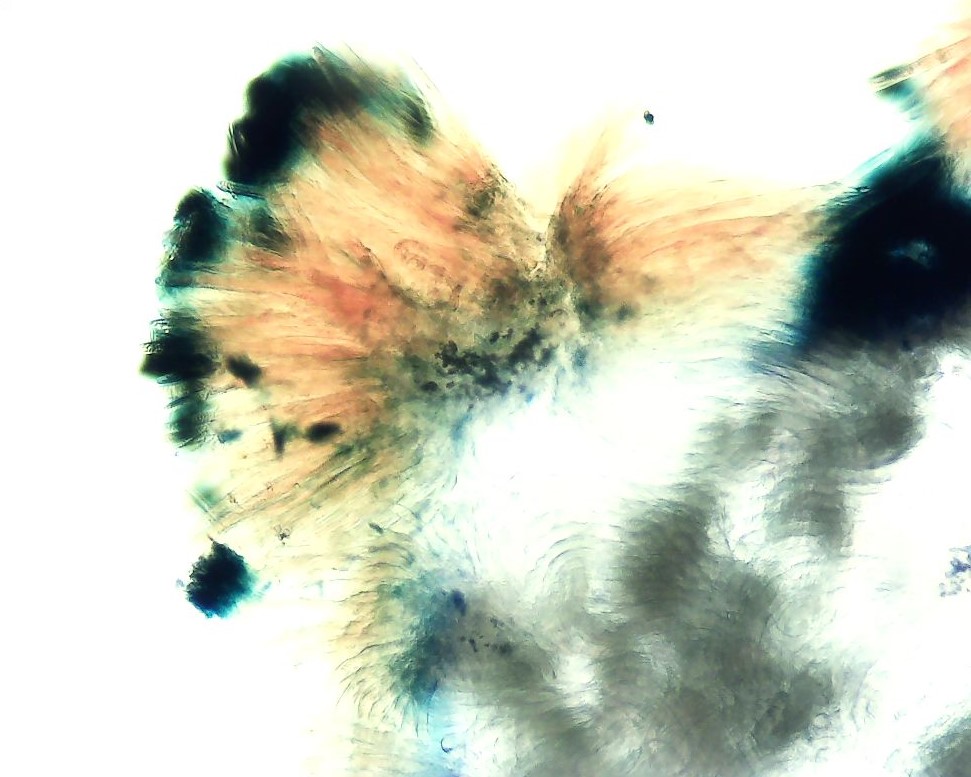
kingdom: Fungi
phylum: Ascomycota
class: Lecanoromycetes
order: Ostropales
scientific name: Ostropales
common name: barkhulordenen
